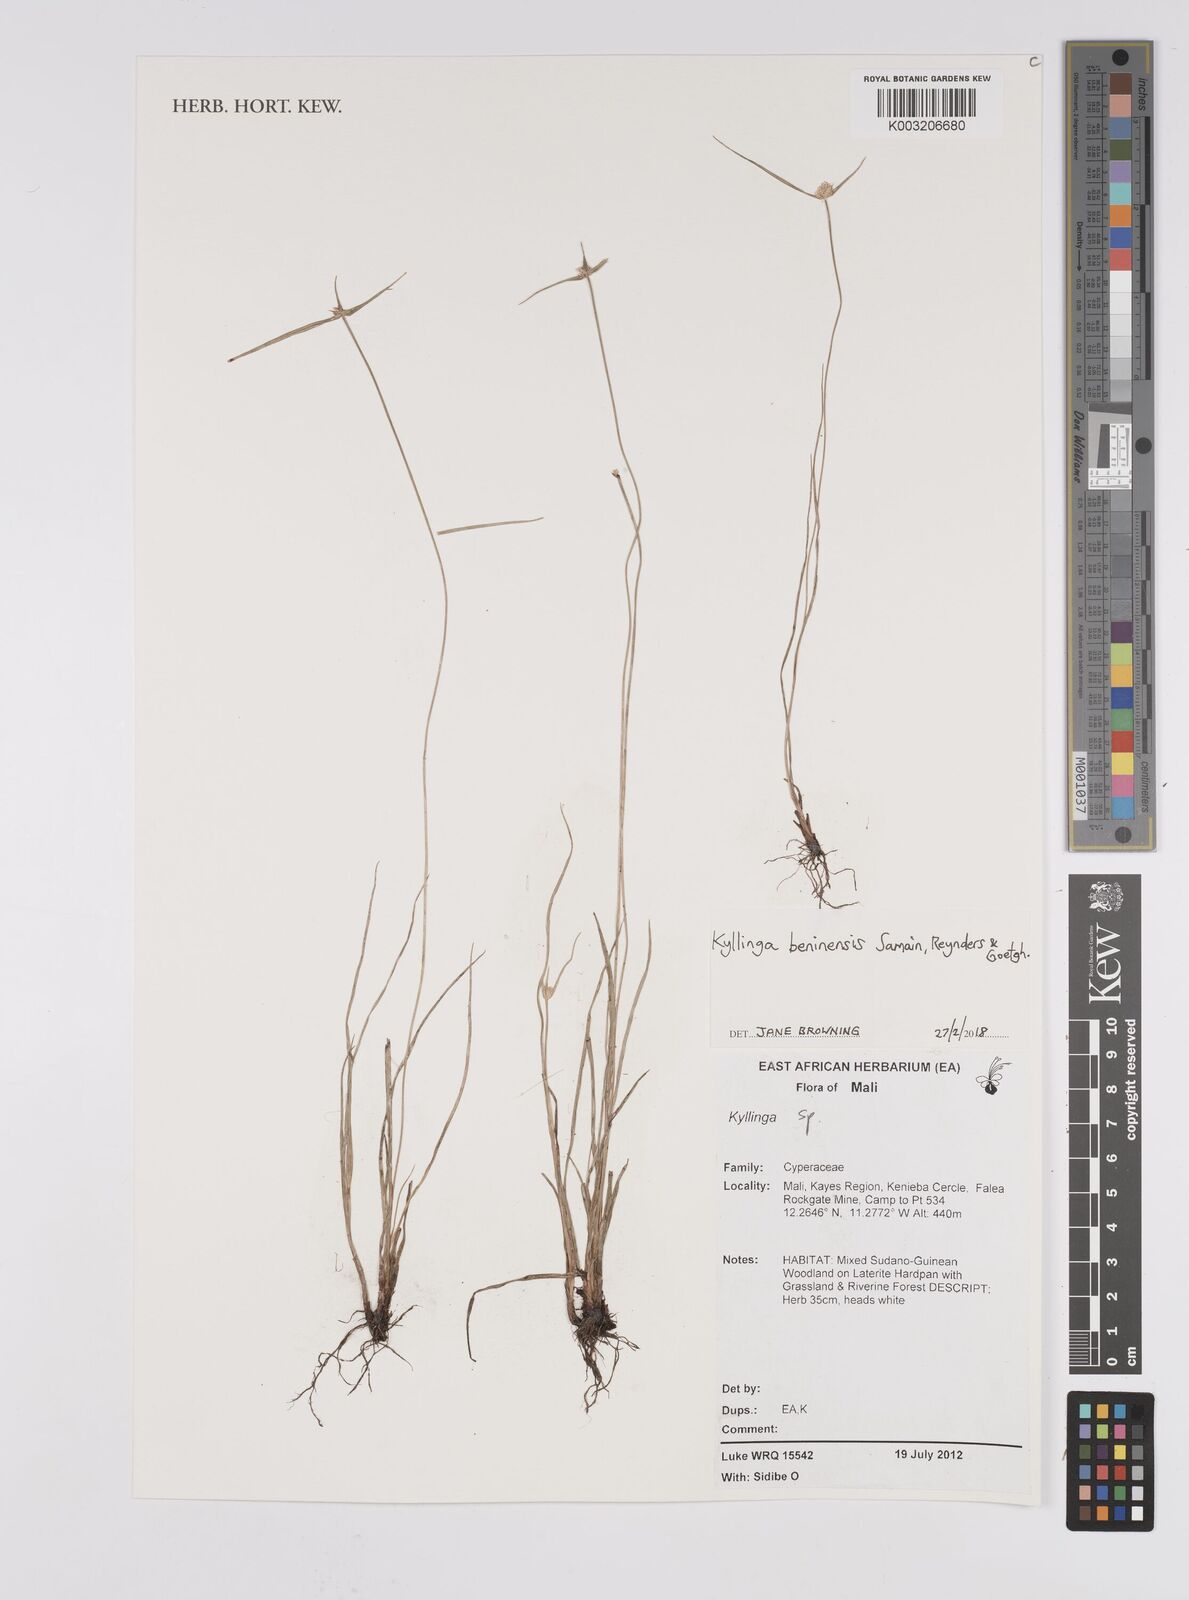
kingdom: Plantae
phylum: Tracheophyta
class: Liliopsida
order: Poales
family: Cyperaceae
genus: Cyperus
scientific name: Cyperus beninensis
